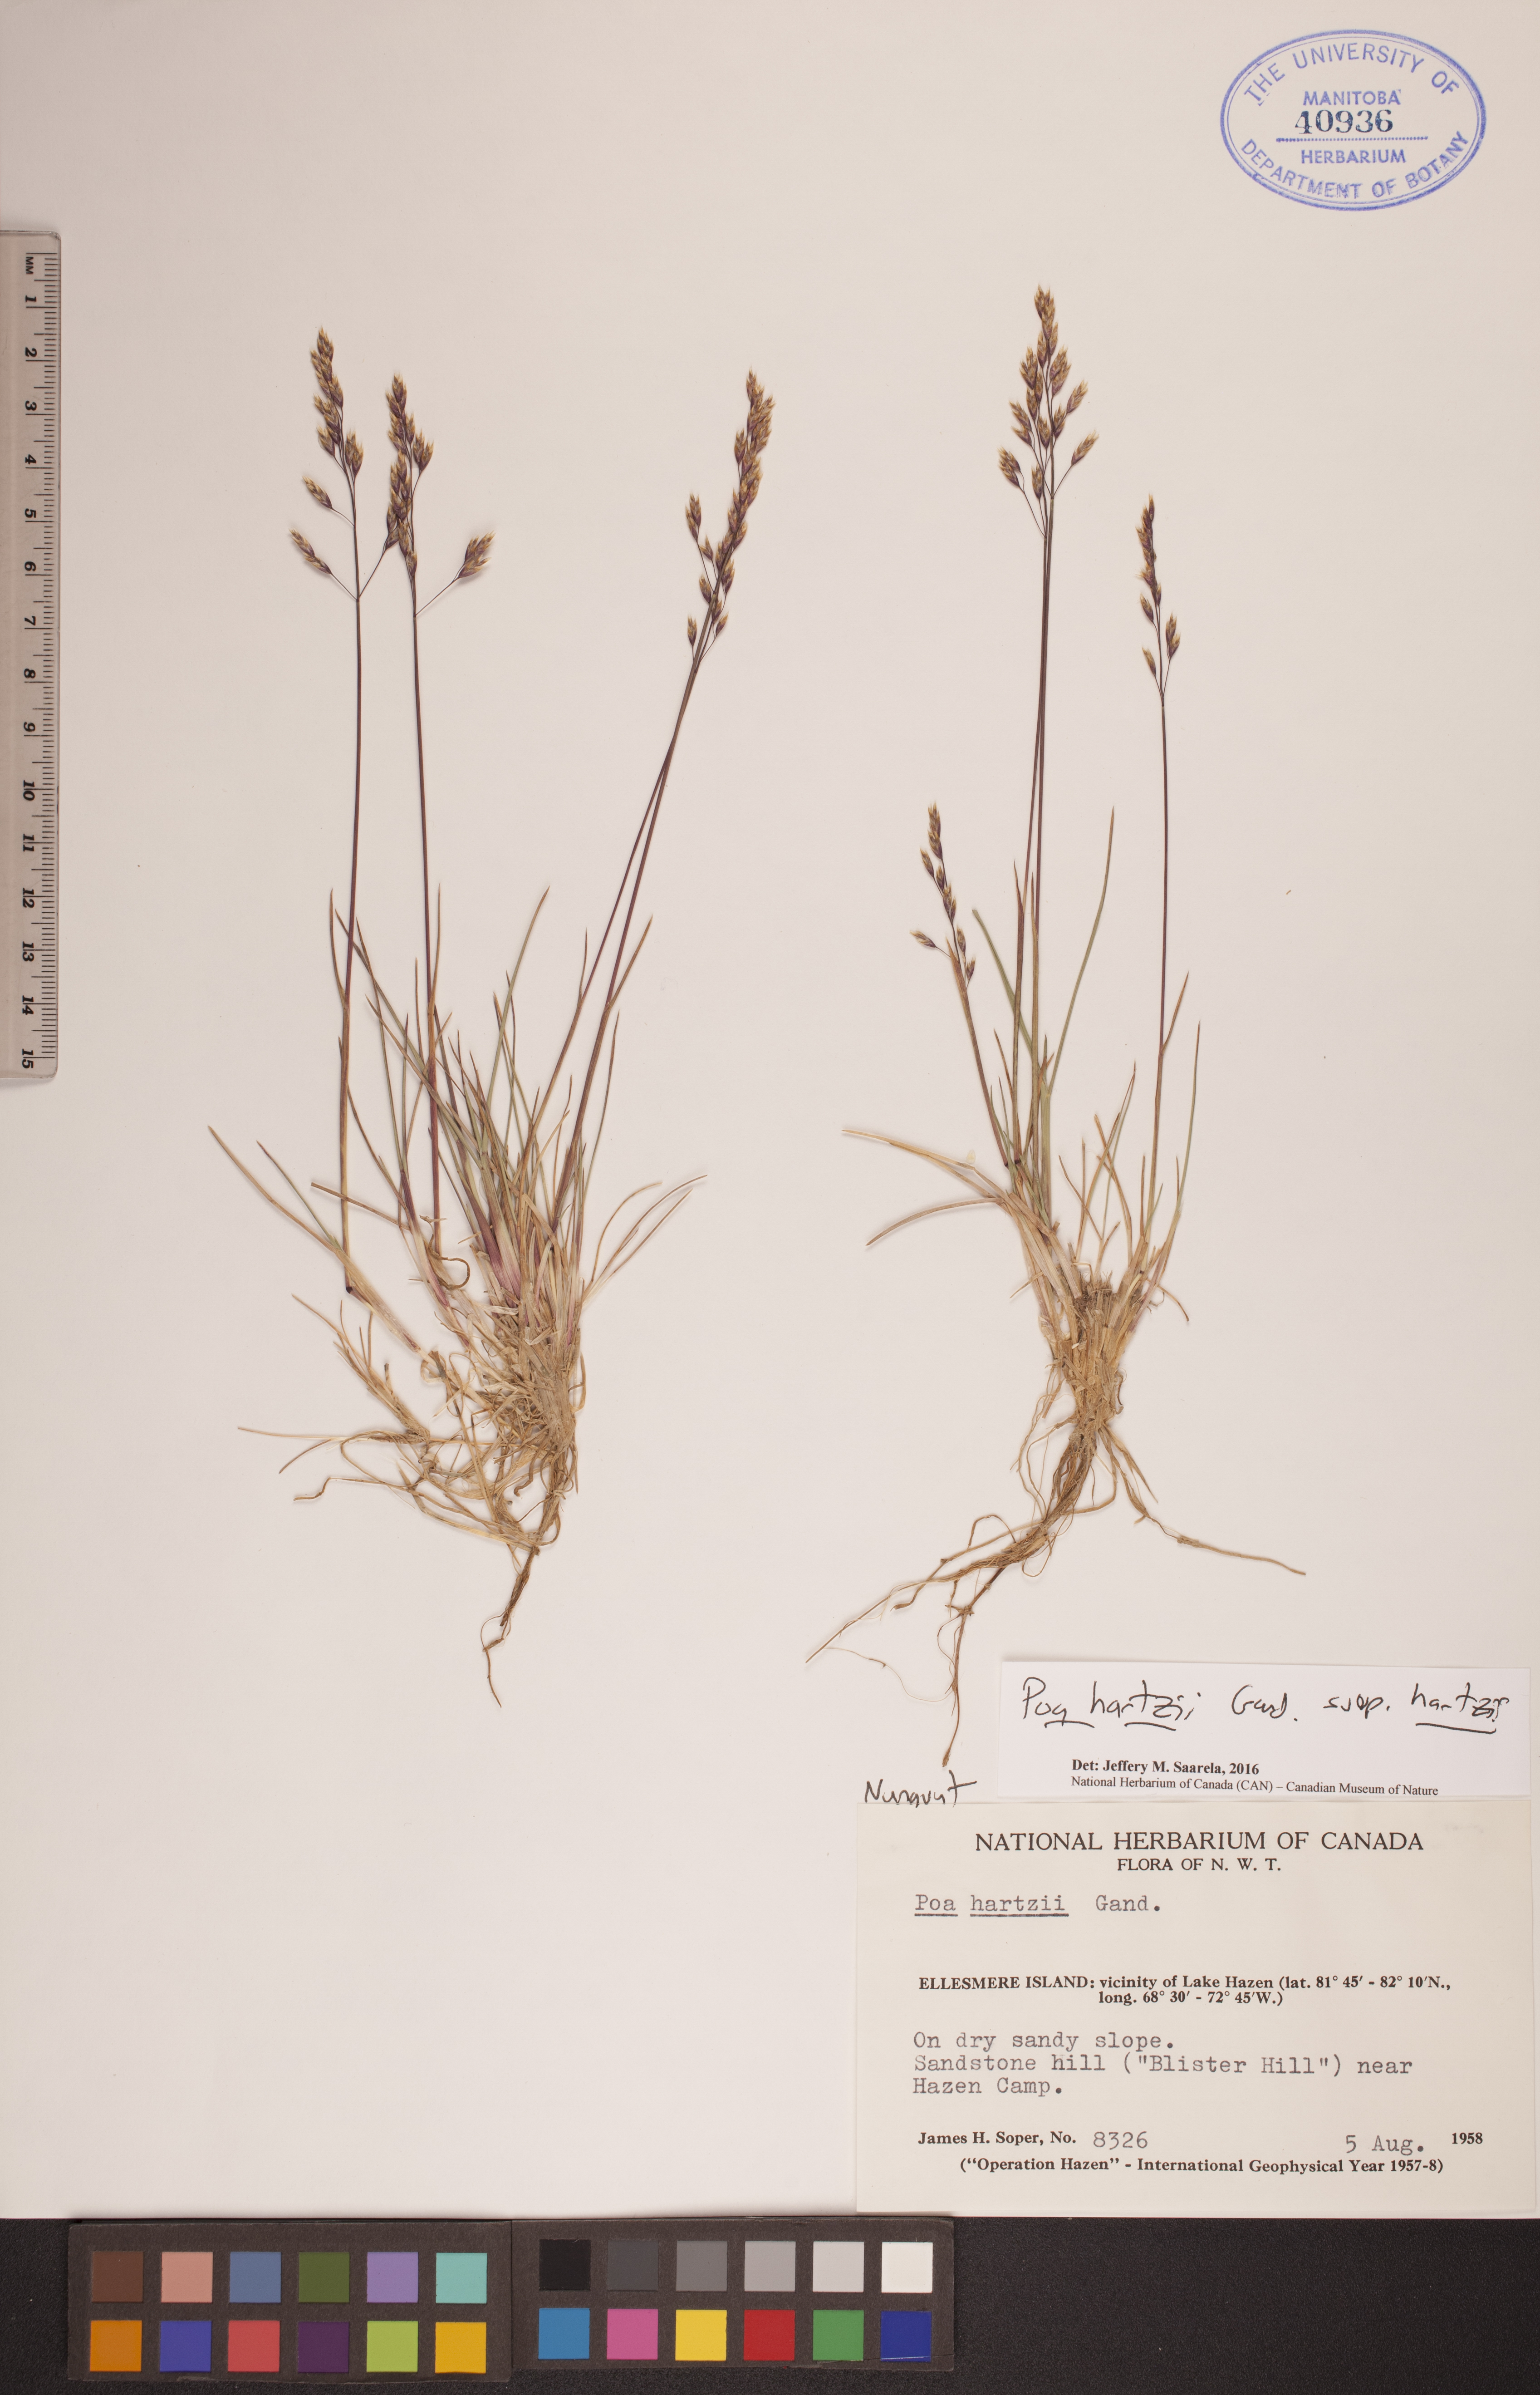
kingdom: Plantae
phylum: Tracheophyta
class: Liliopsida
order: Poales
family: Poaceae
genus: Poa
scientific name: Poa hartzii
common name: Hartz's bluegrass
